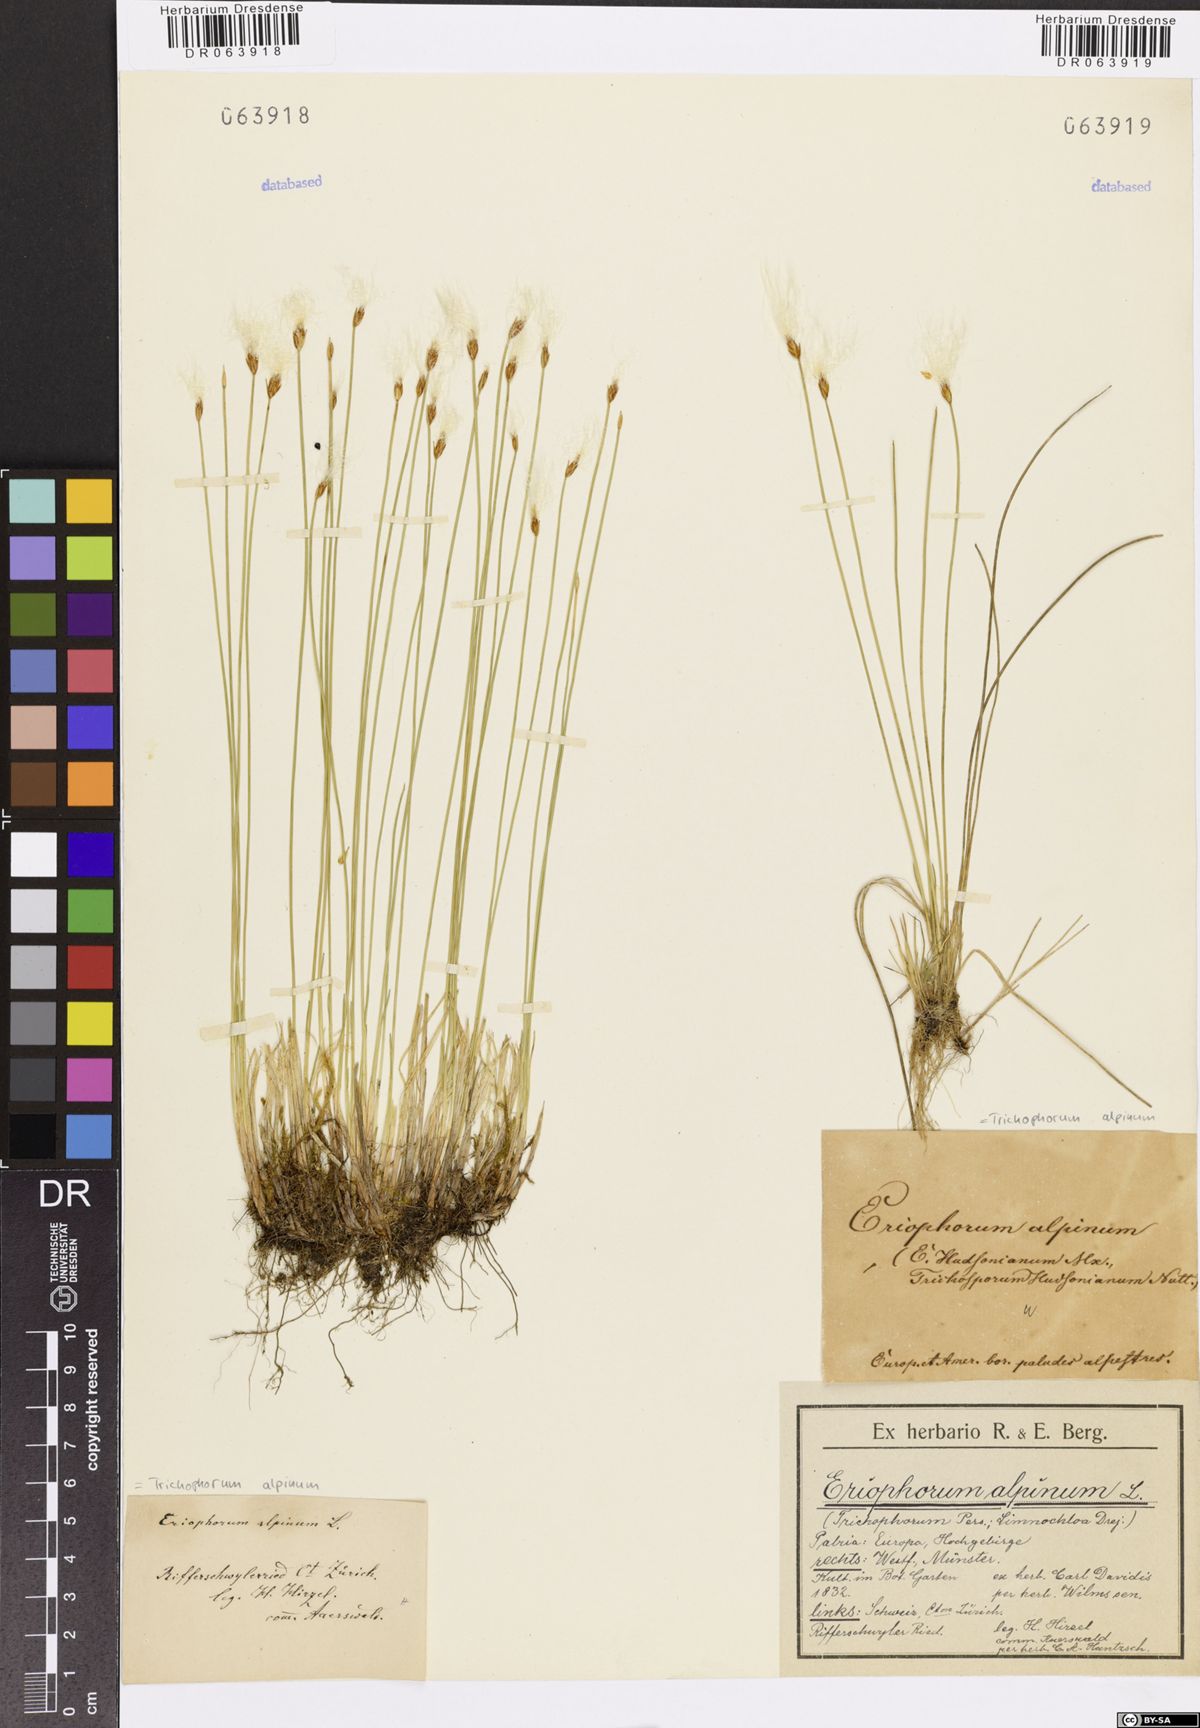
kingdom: Plantae
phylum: Tracheophyta
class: Liliopsida
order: Poales
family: Cyperaceae
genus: Trichophorum
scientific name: Trichophorum alpinum
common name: Alpine bulrush
